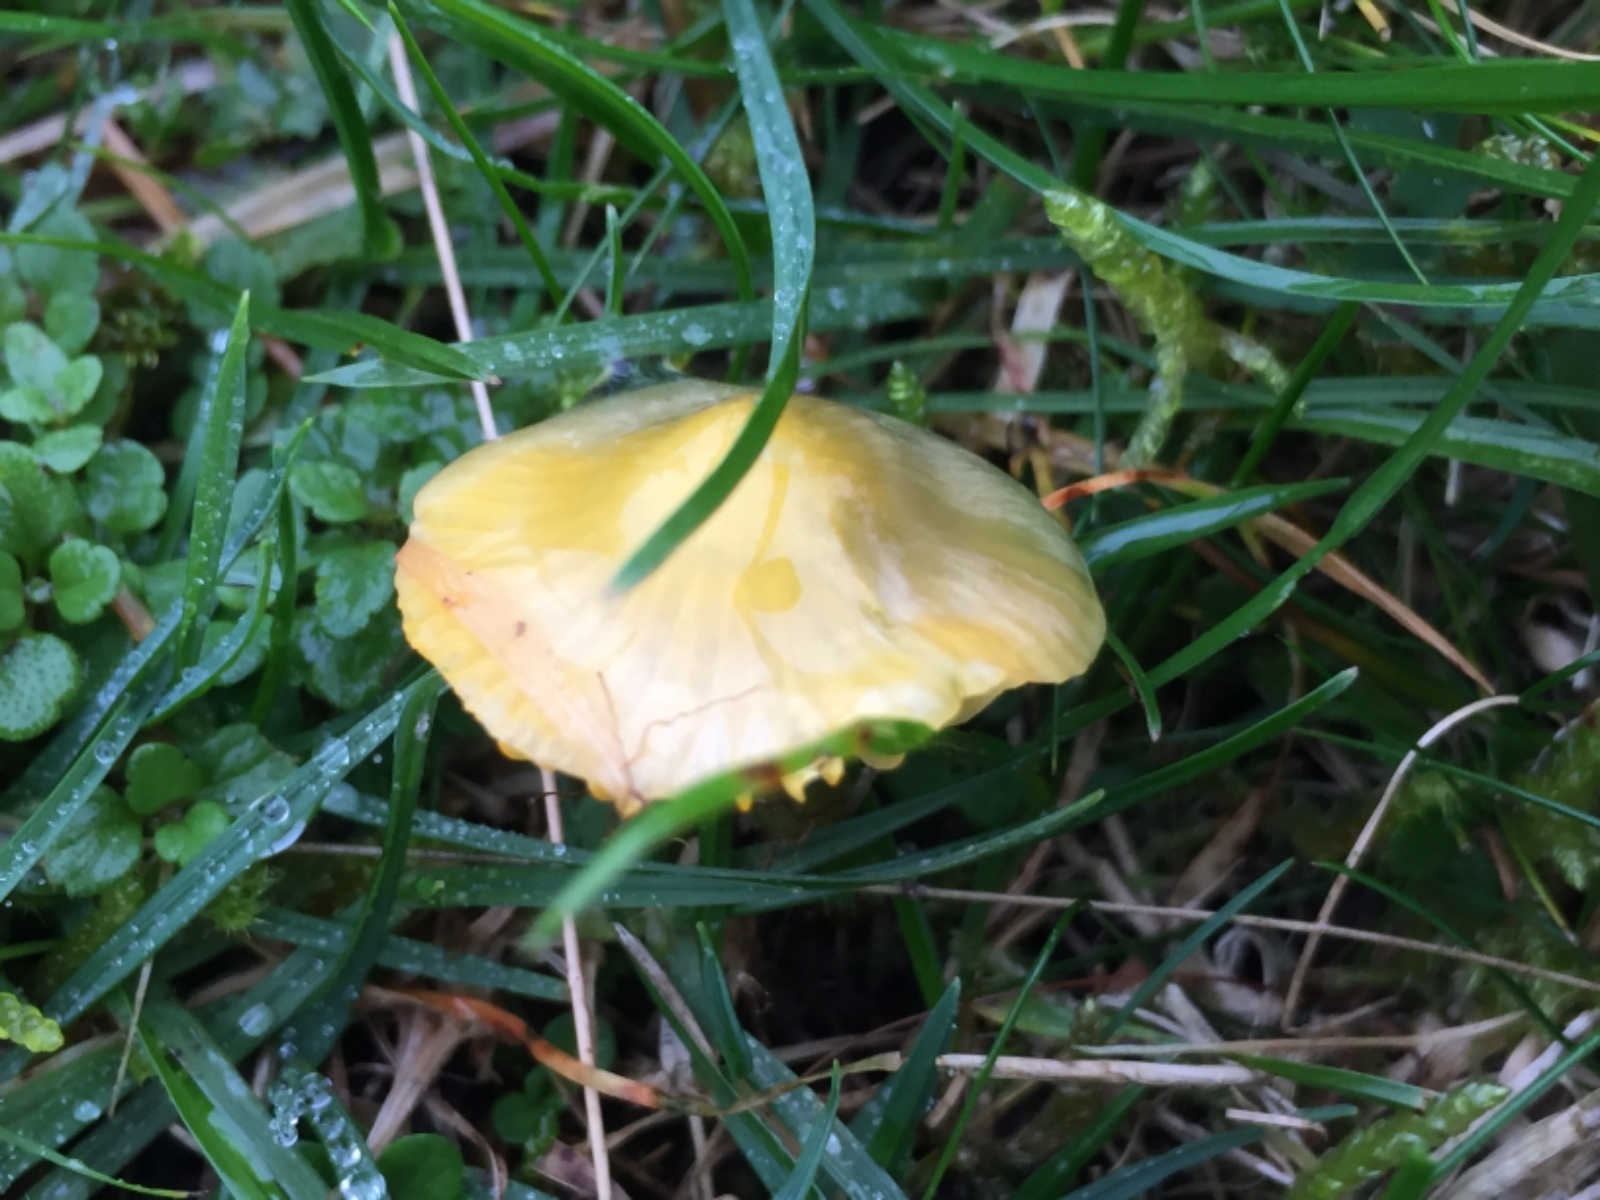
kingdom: Fungi
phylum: Basidiomycota
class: Agaricomycetes
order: Agaricales
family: Hygrophoraceae
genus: Gliophorus
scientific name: Gliophorus psittacinus
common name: papegøje-vokshat
